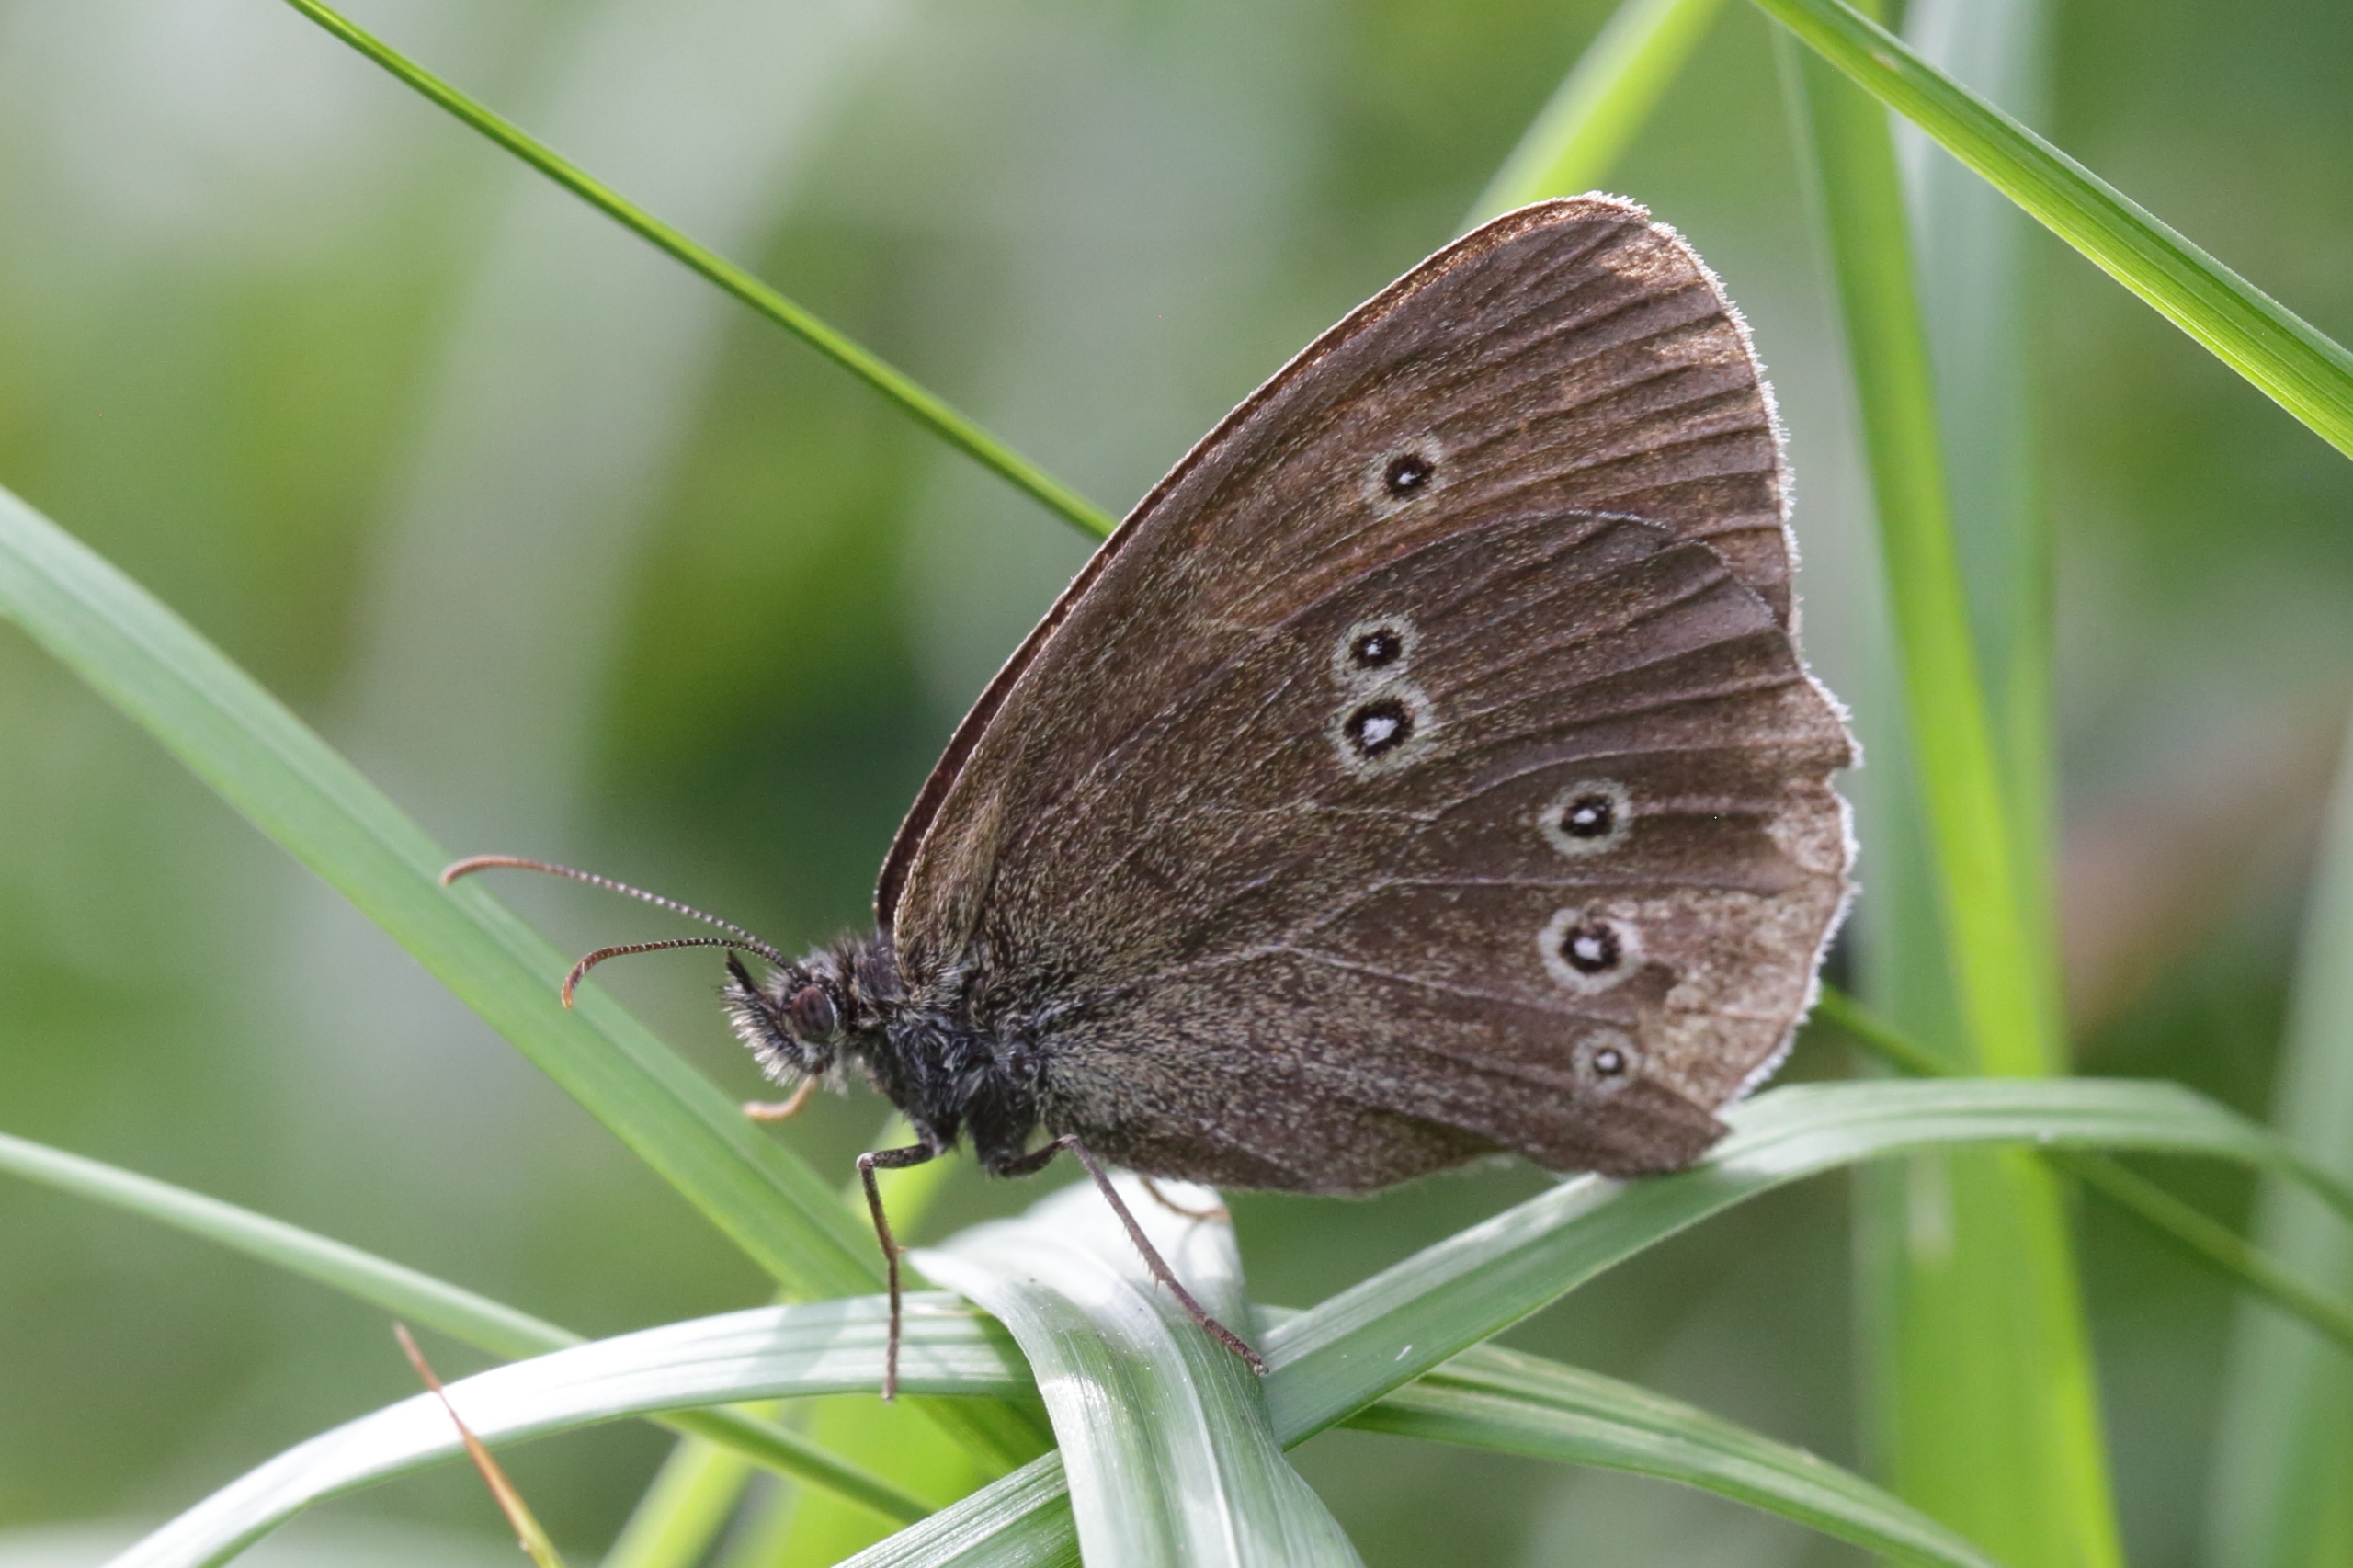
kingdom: Animalia
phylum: Arthropoda
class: Insecta
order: Lepidoptera
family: Nymphalidae
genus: Aphantopus
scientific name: Aphantopus hyperantus
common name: Engrandøje
